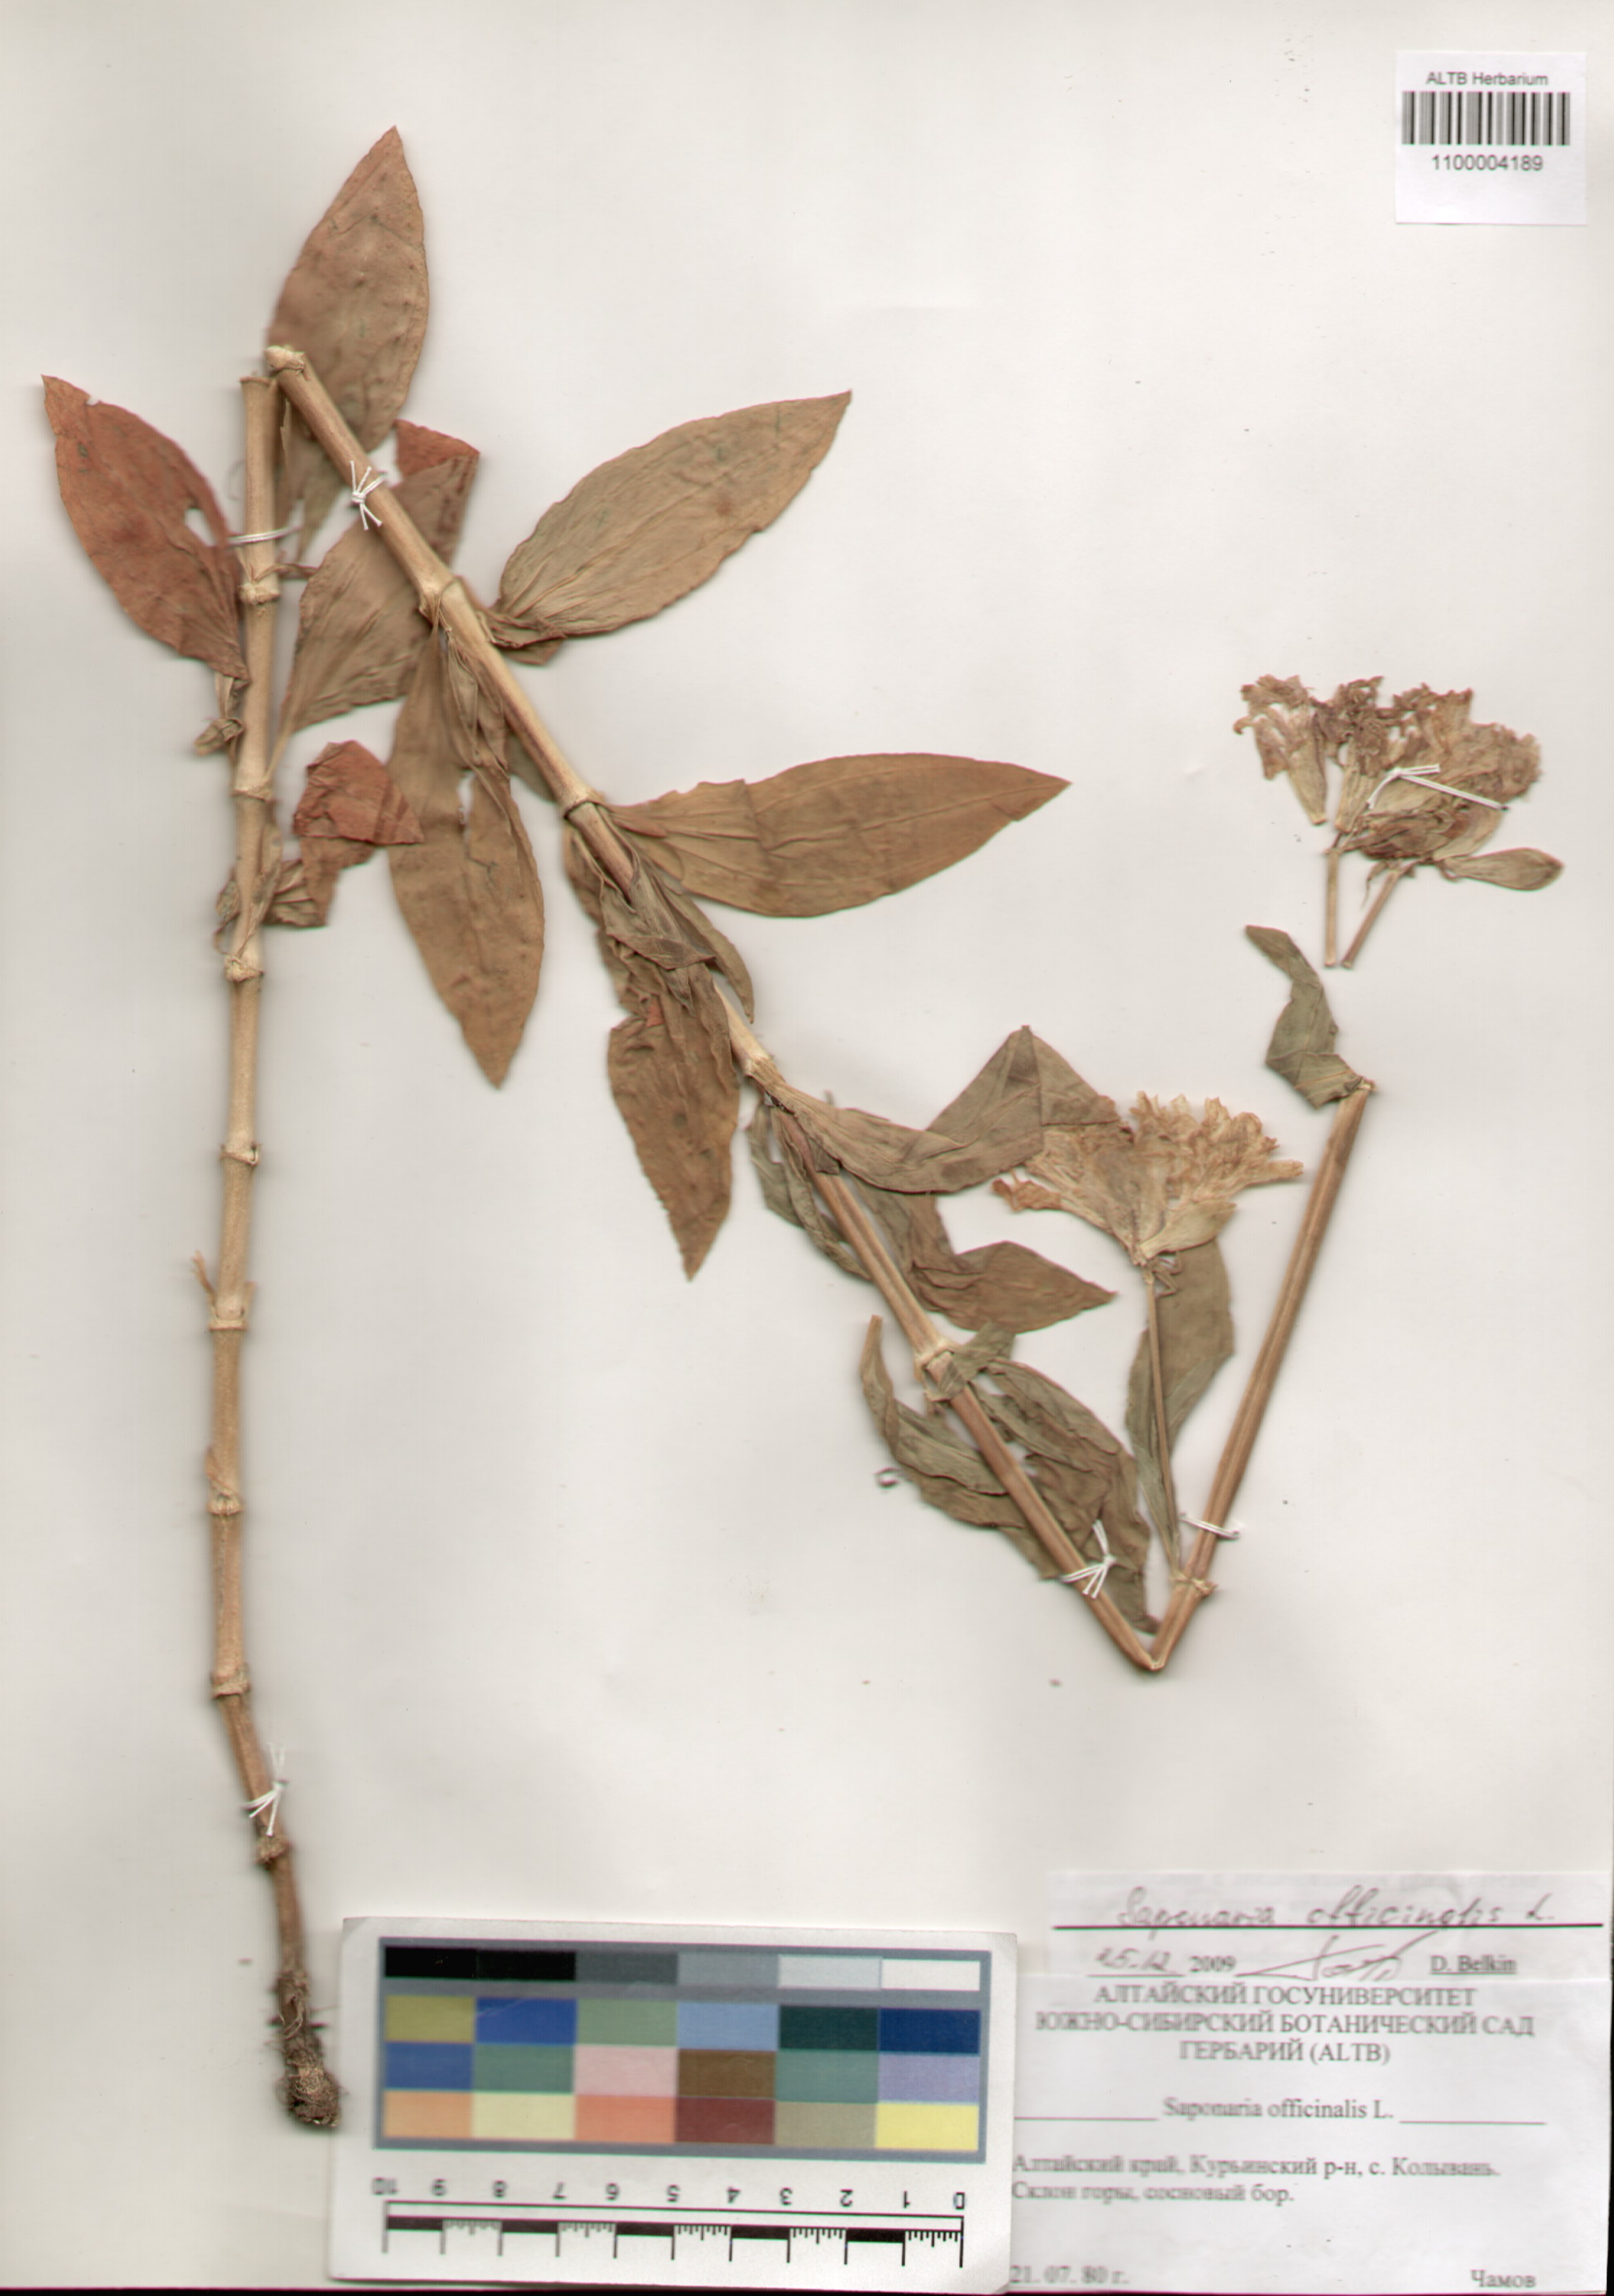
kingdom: Plantae
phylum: Tracheophyta
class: Magnoliopsida
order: Caryophyllales
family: Caryophyllaceae
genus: Saponaria
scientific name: Saponaria officinalis
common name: Soapwort
